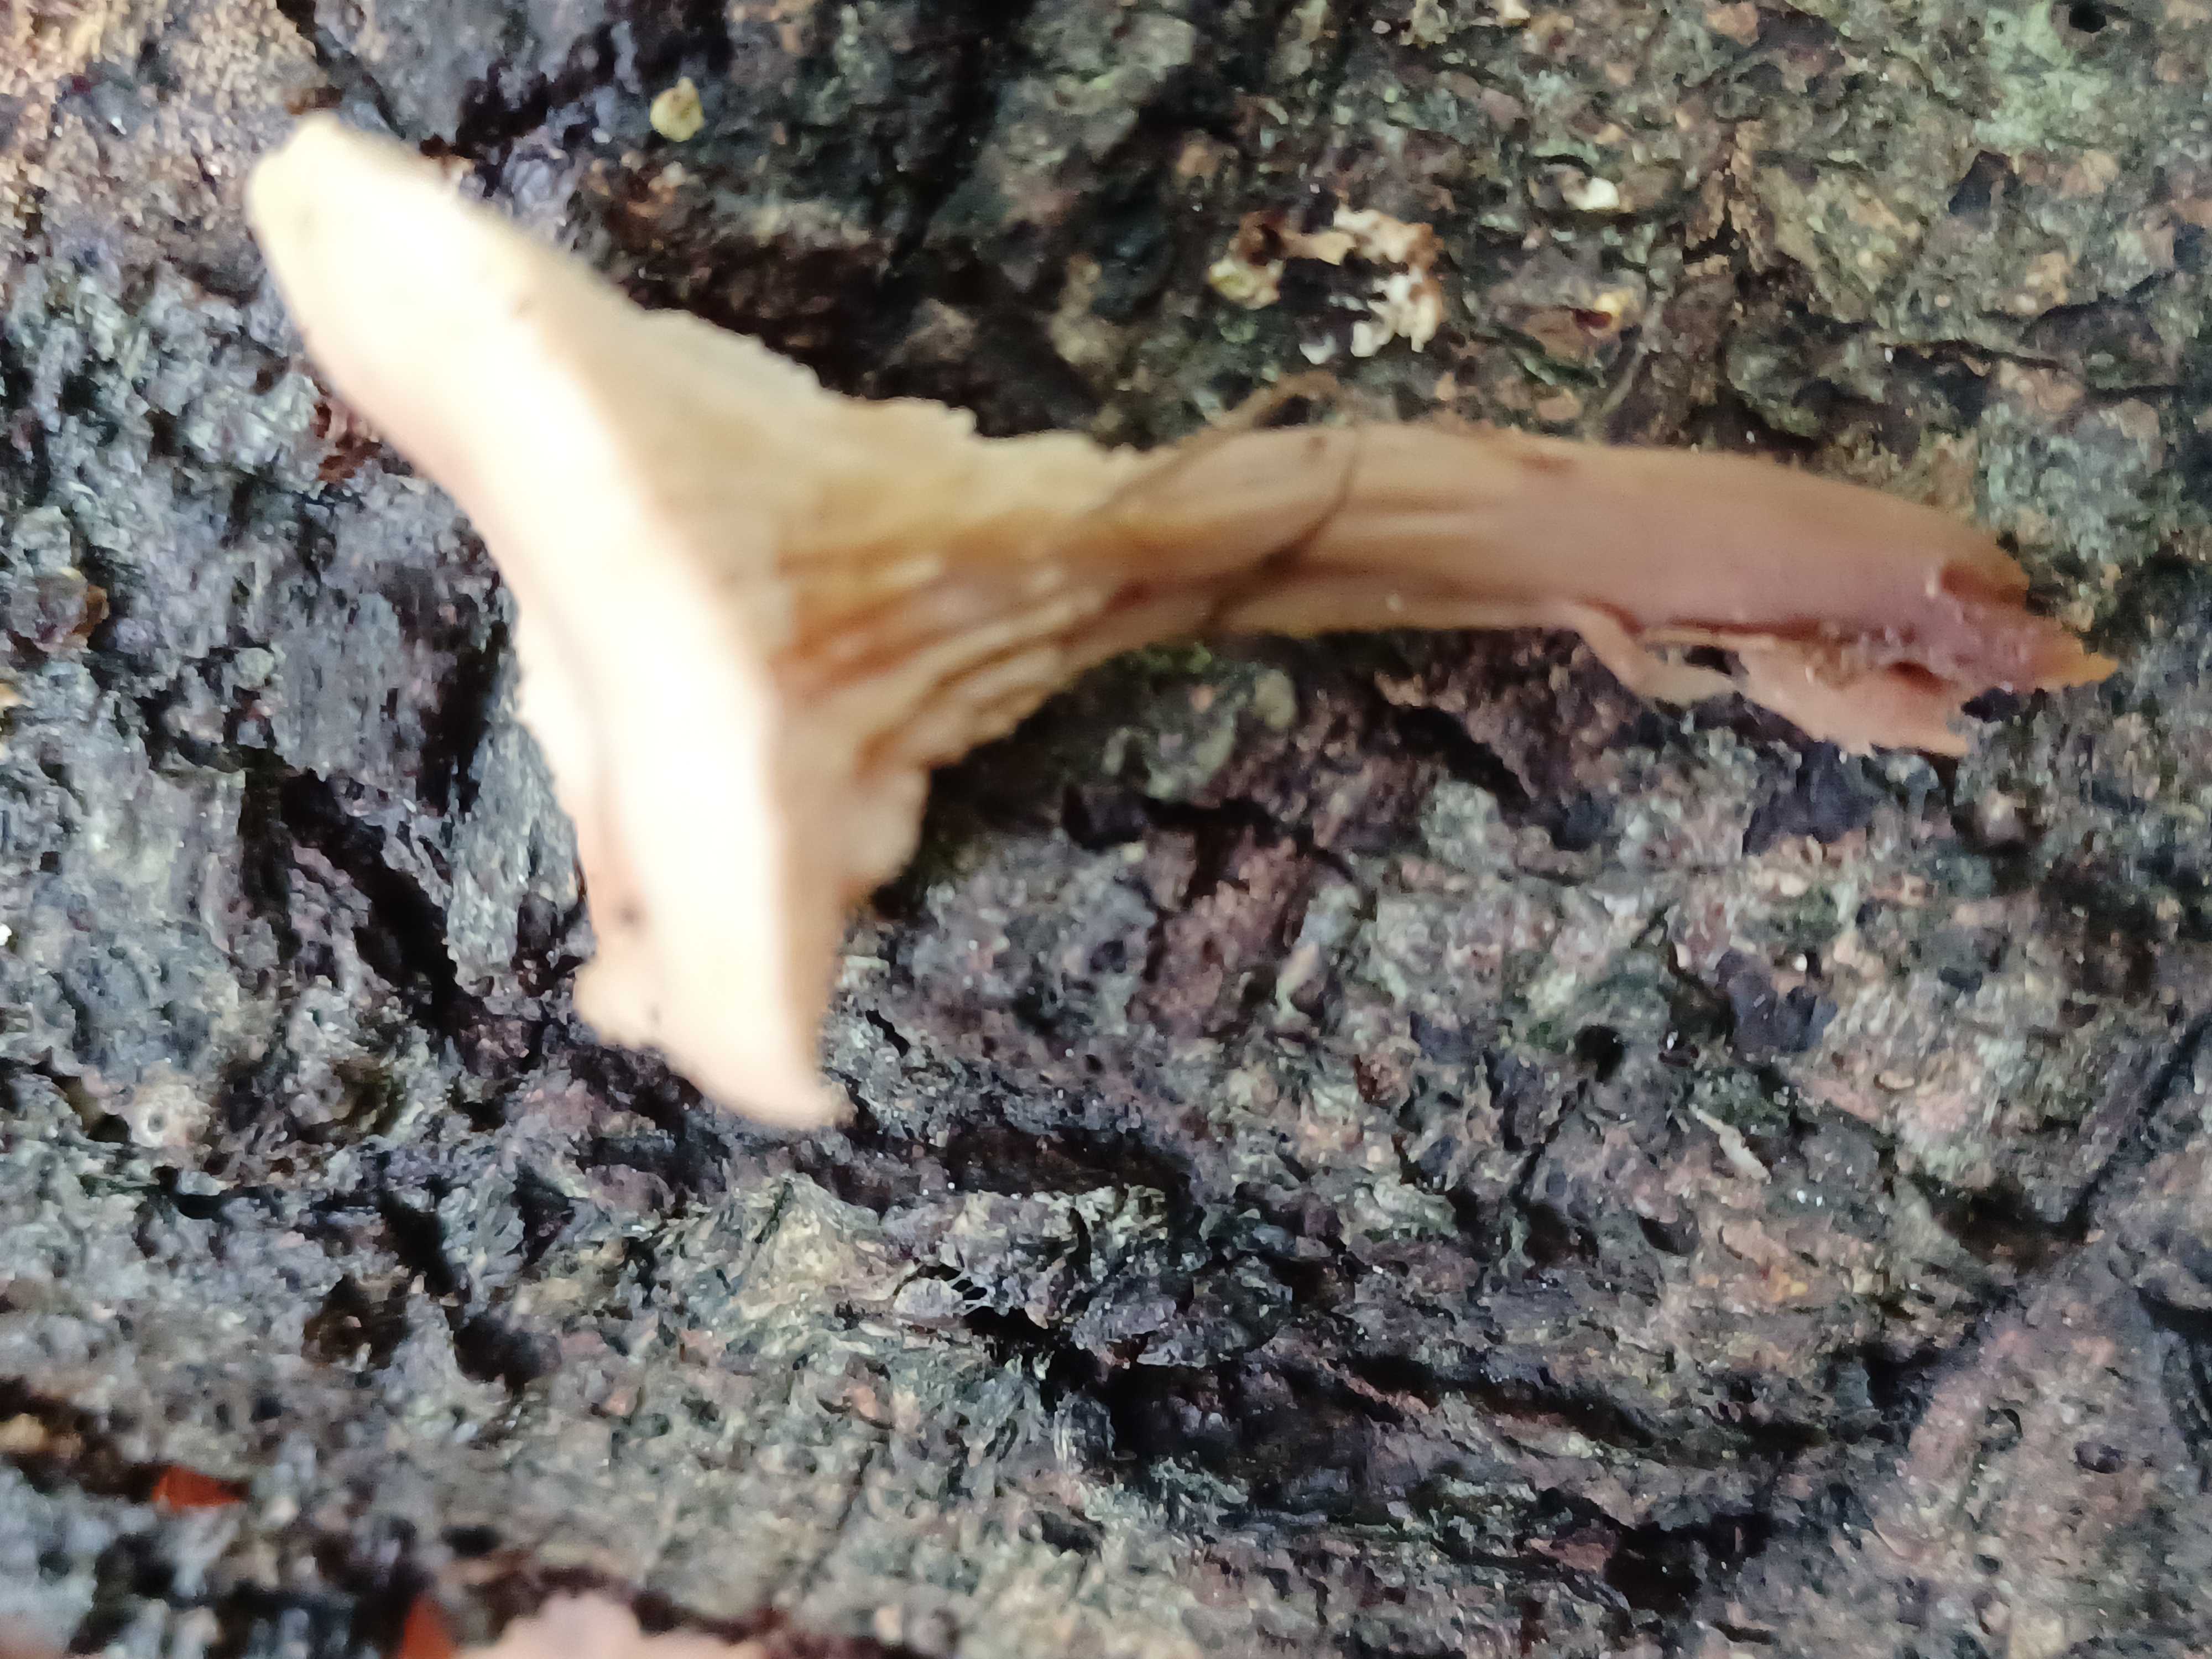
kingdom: Fungi
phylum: Basidiomycota
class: Agaricomycetes
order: Russulales
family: Auriscalpiaceae
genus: Lentinellus
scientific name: Lentinellus cochleatus
